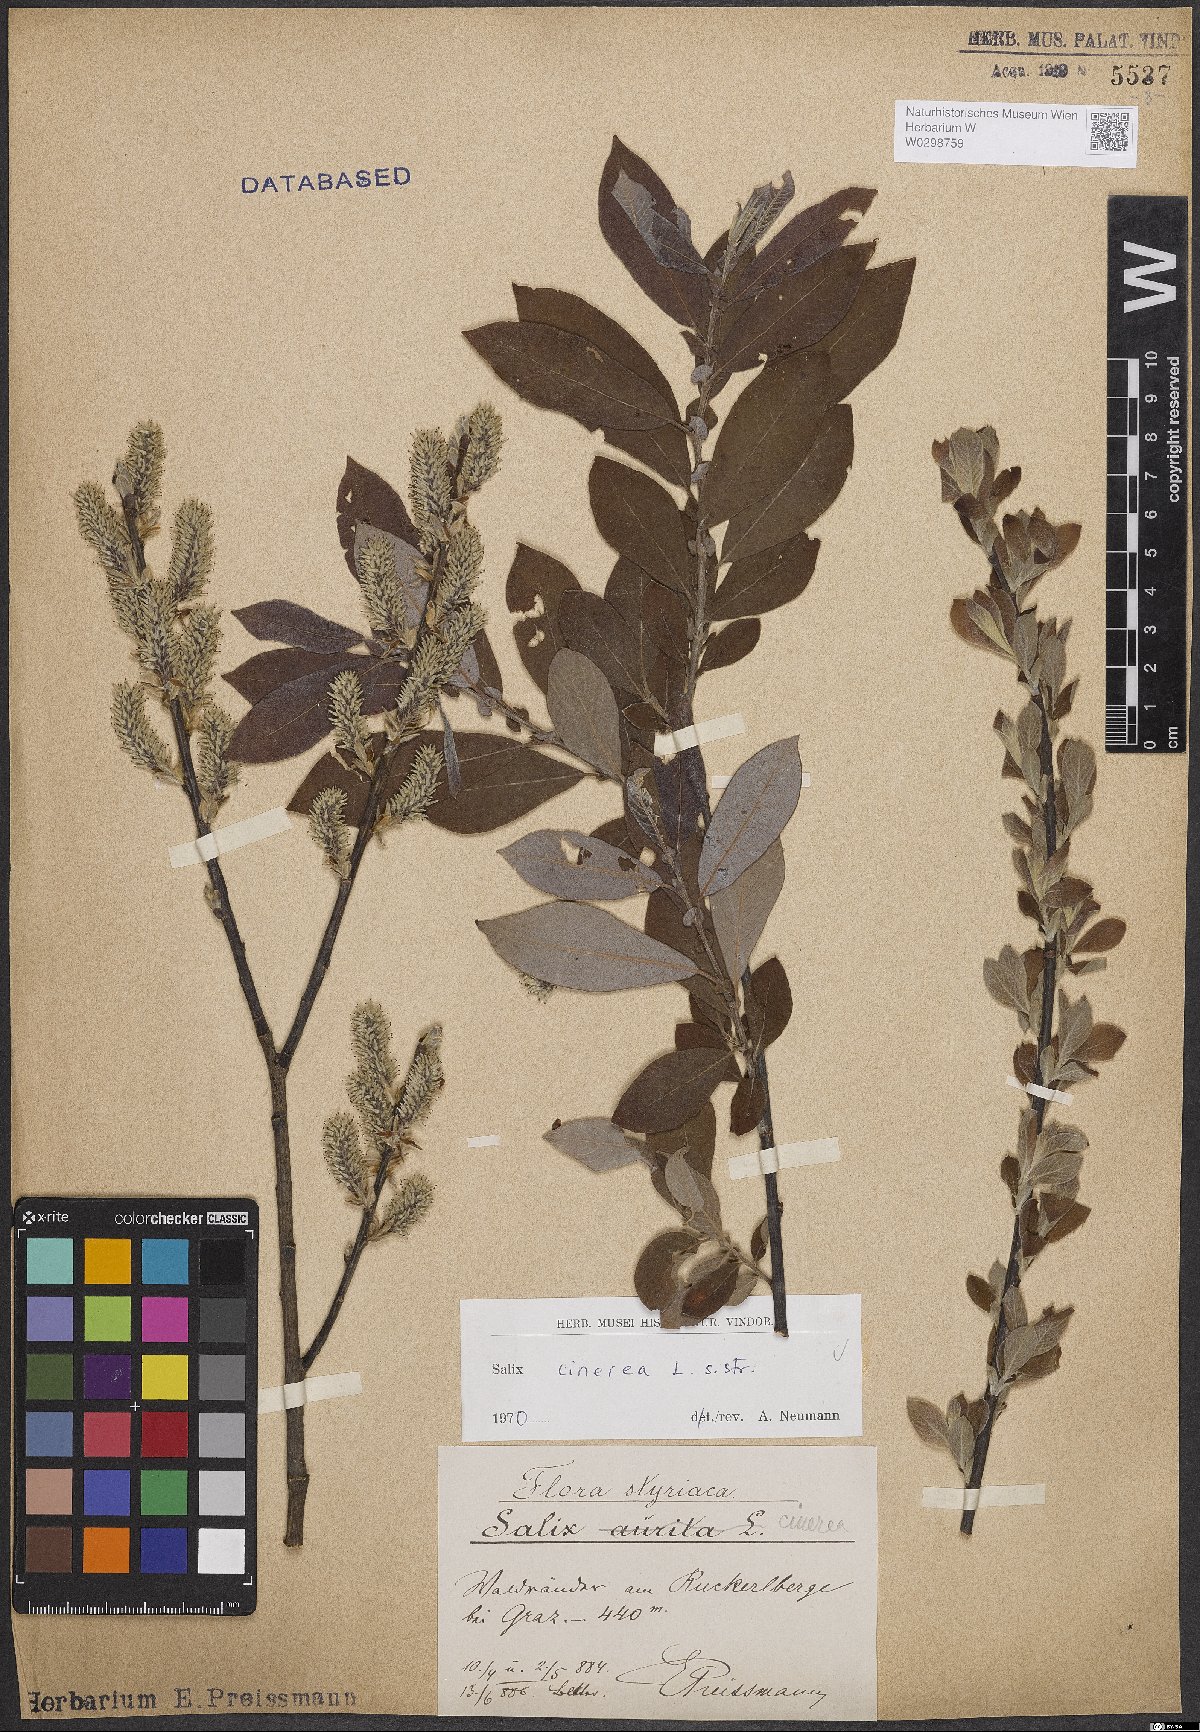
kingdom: Plantae
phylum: Tracheophyta
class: Magnoliopsida
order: Malpighiales
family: Salicaceae
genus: Salix
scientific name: Salix cinerea
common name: Common sallow
